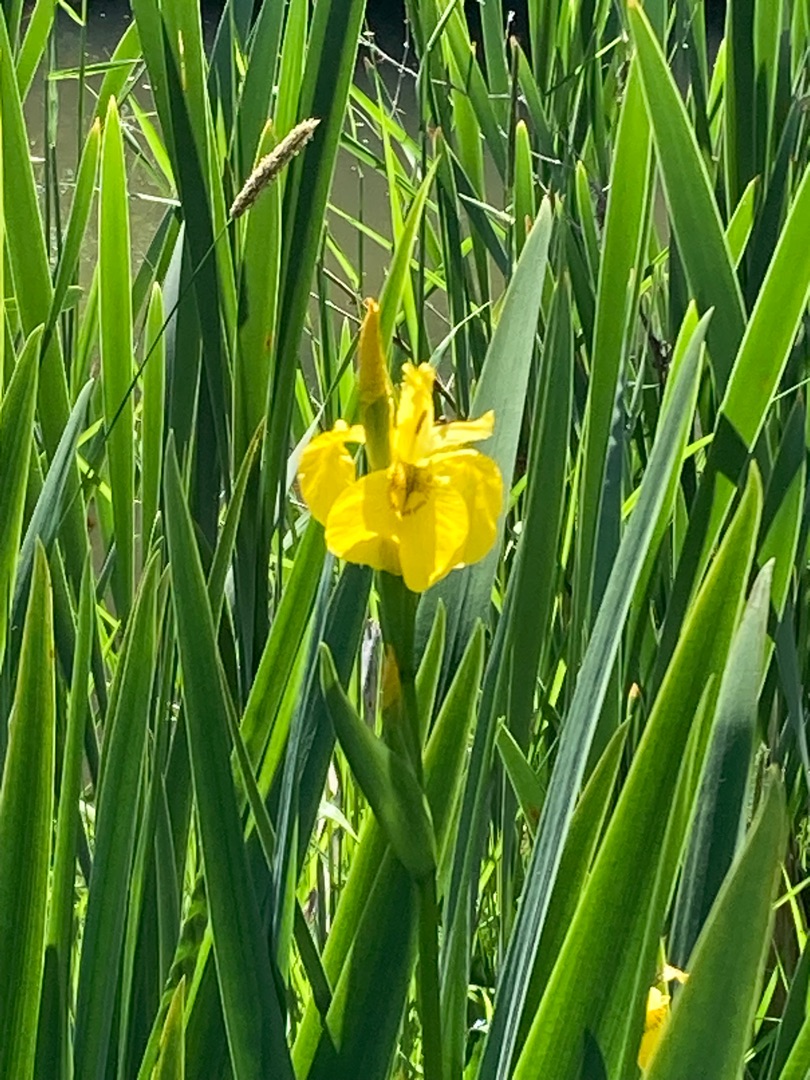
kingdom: Plantae
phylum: Tracheophyta
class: Liliopsida
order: Asparagales
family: Iridaceae
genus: Iris
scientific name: Iris pseudacorus
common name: Gul iris
